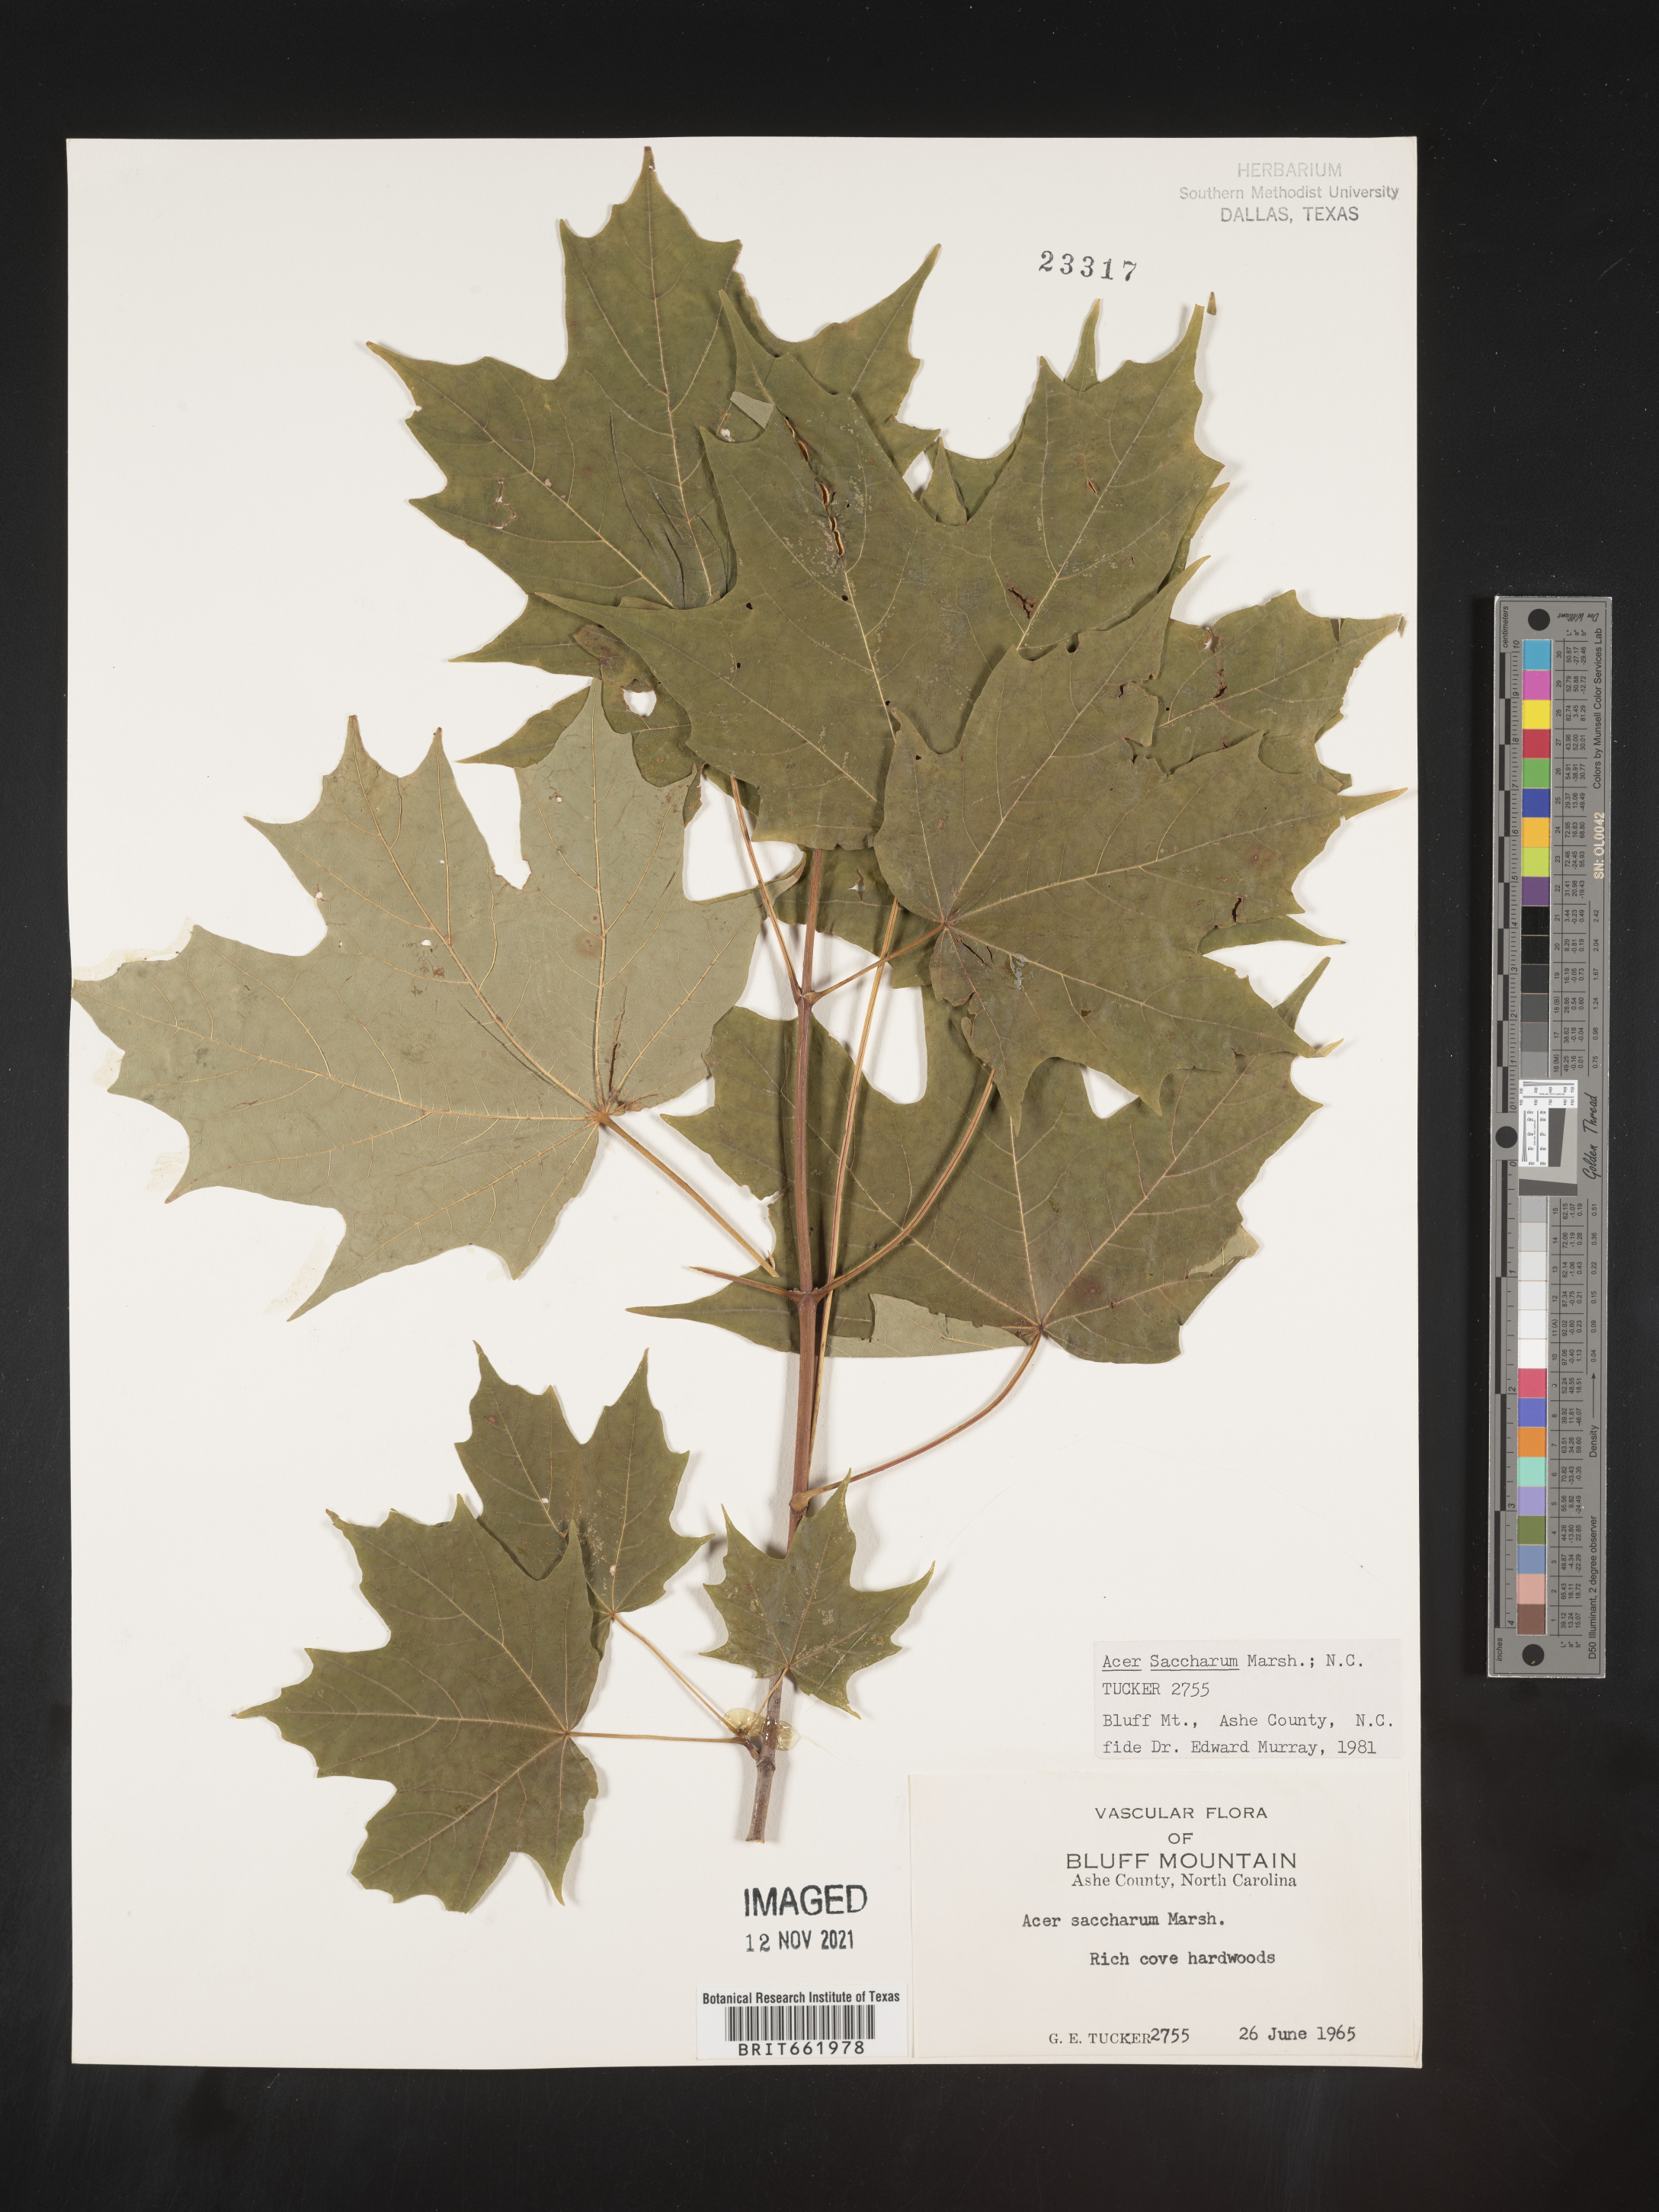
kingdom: Plantae
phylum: Tracheophyta
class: Magnoliopsida
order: Sapindales
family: Sapindaceae
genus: Acer
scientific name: Acer saccharum
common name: Sugar maple
